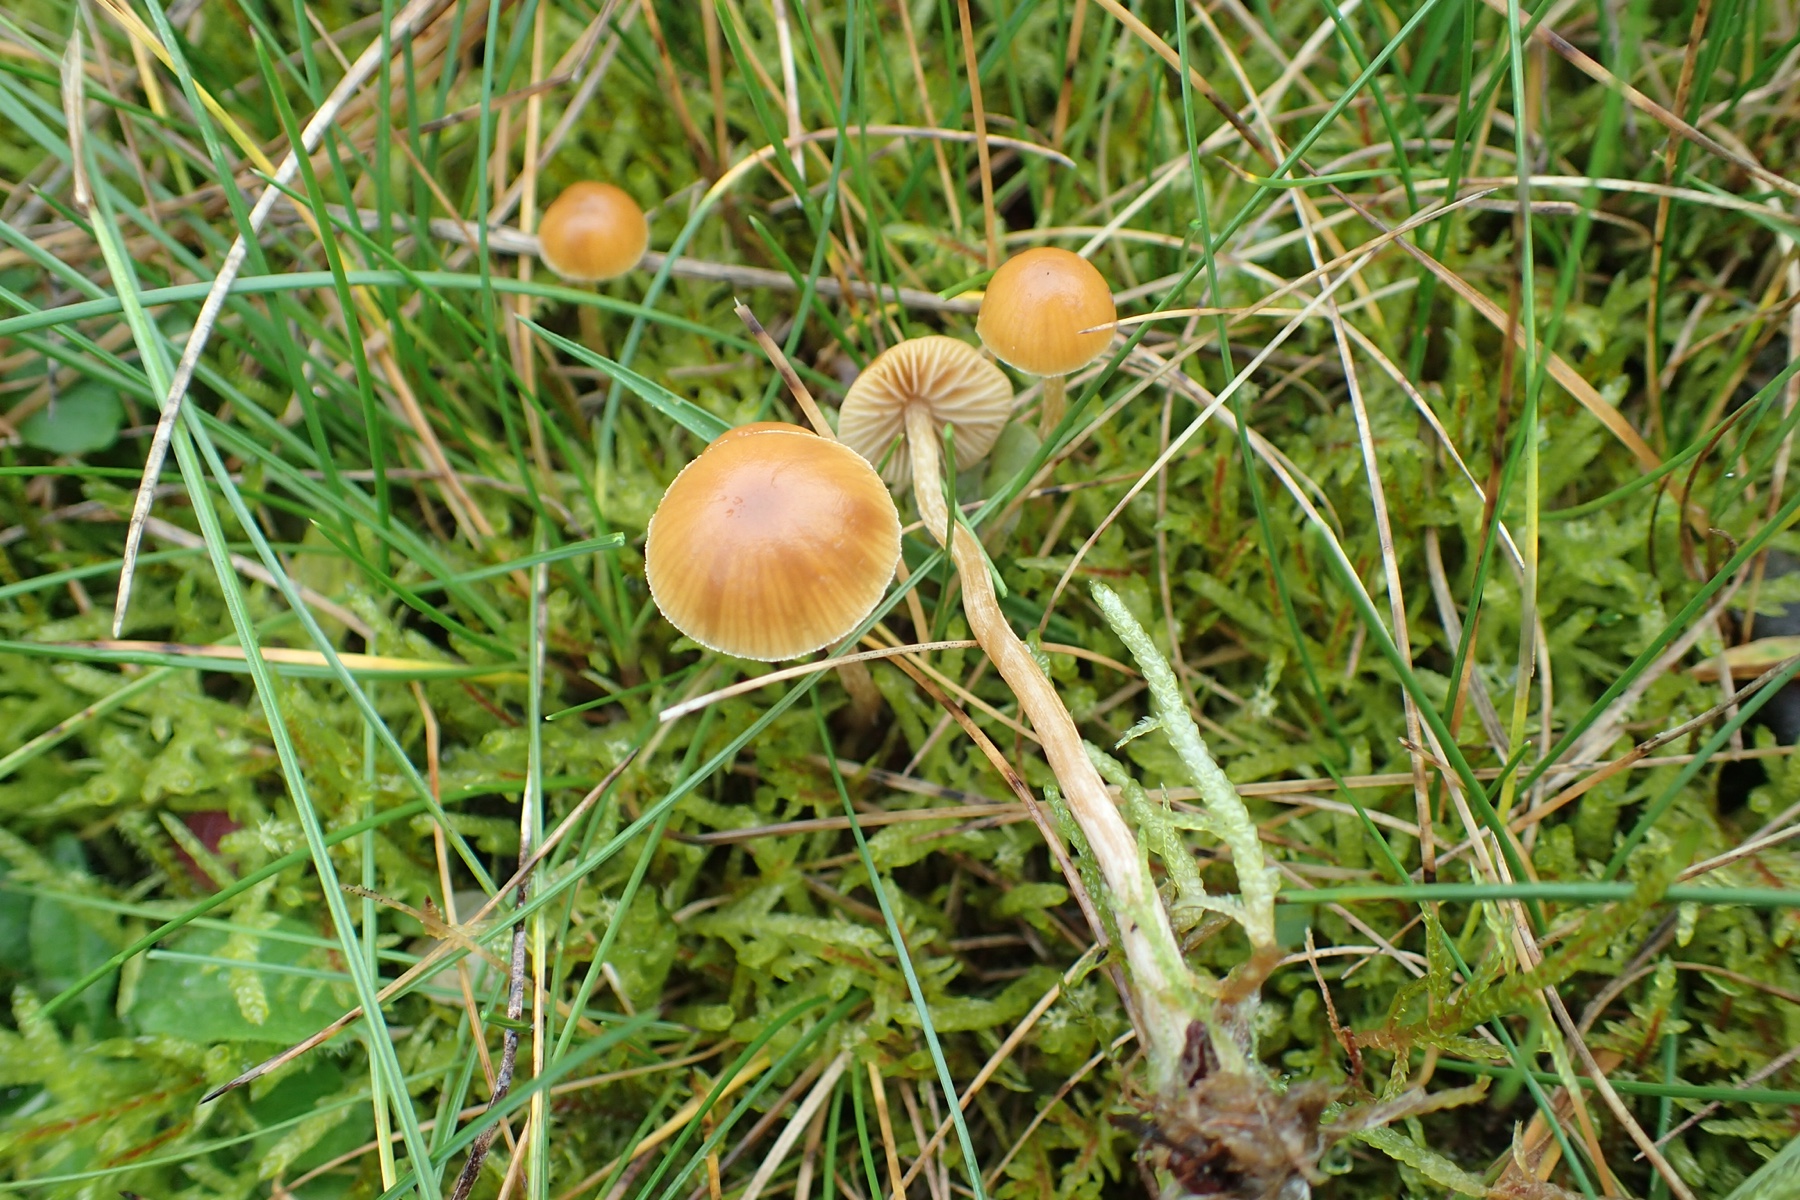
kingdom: Fungi
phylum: Basidiomycota
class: Agaricomycetes
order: Agaricales
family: Hymenogastraceae
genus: Galerina
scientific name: Galerina
